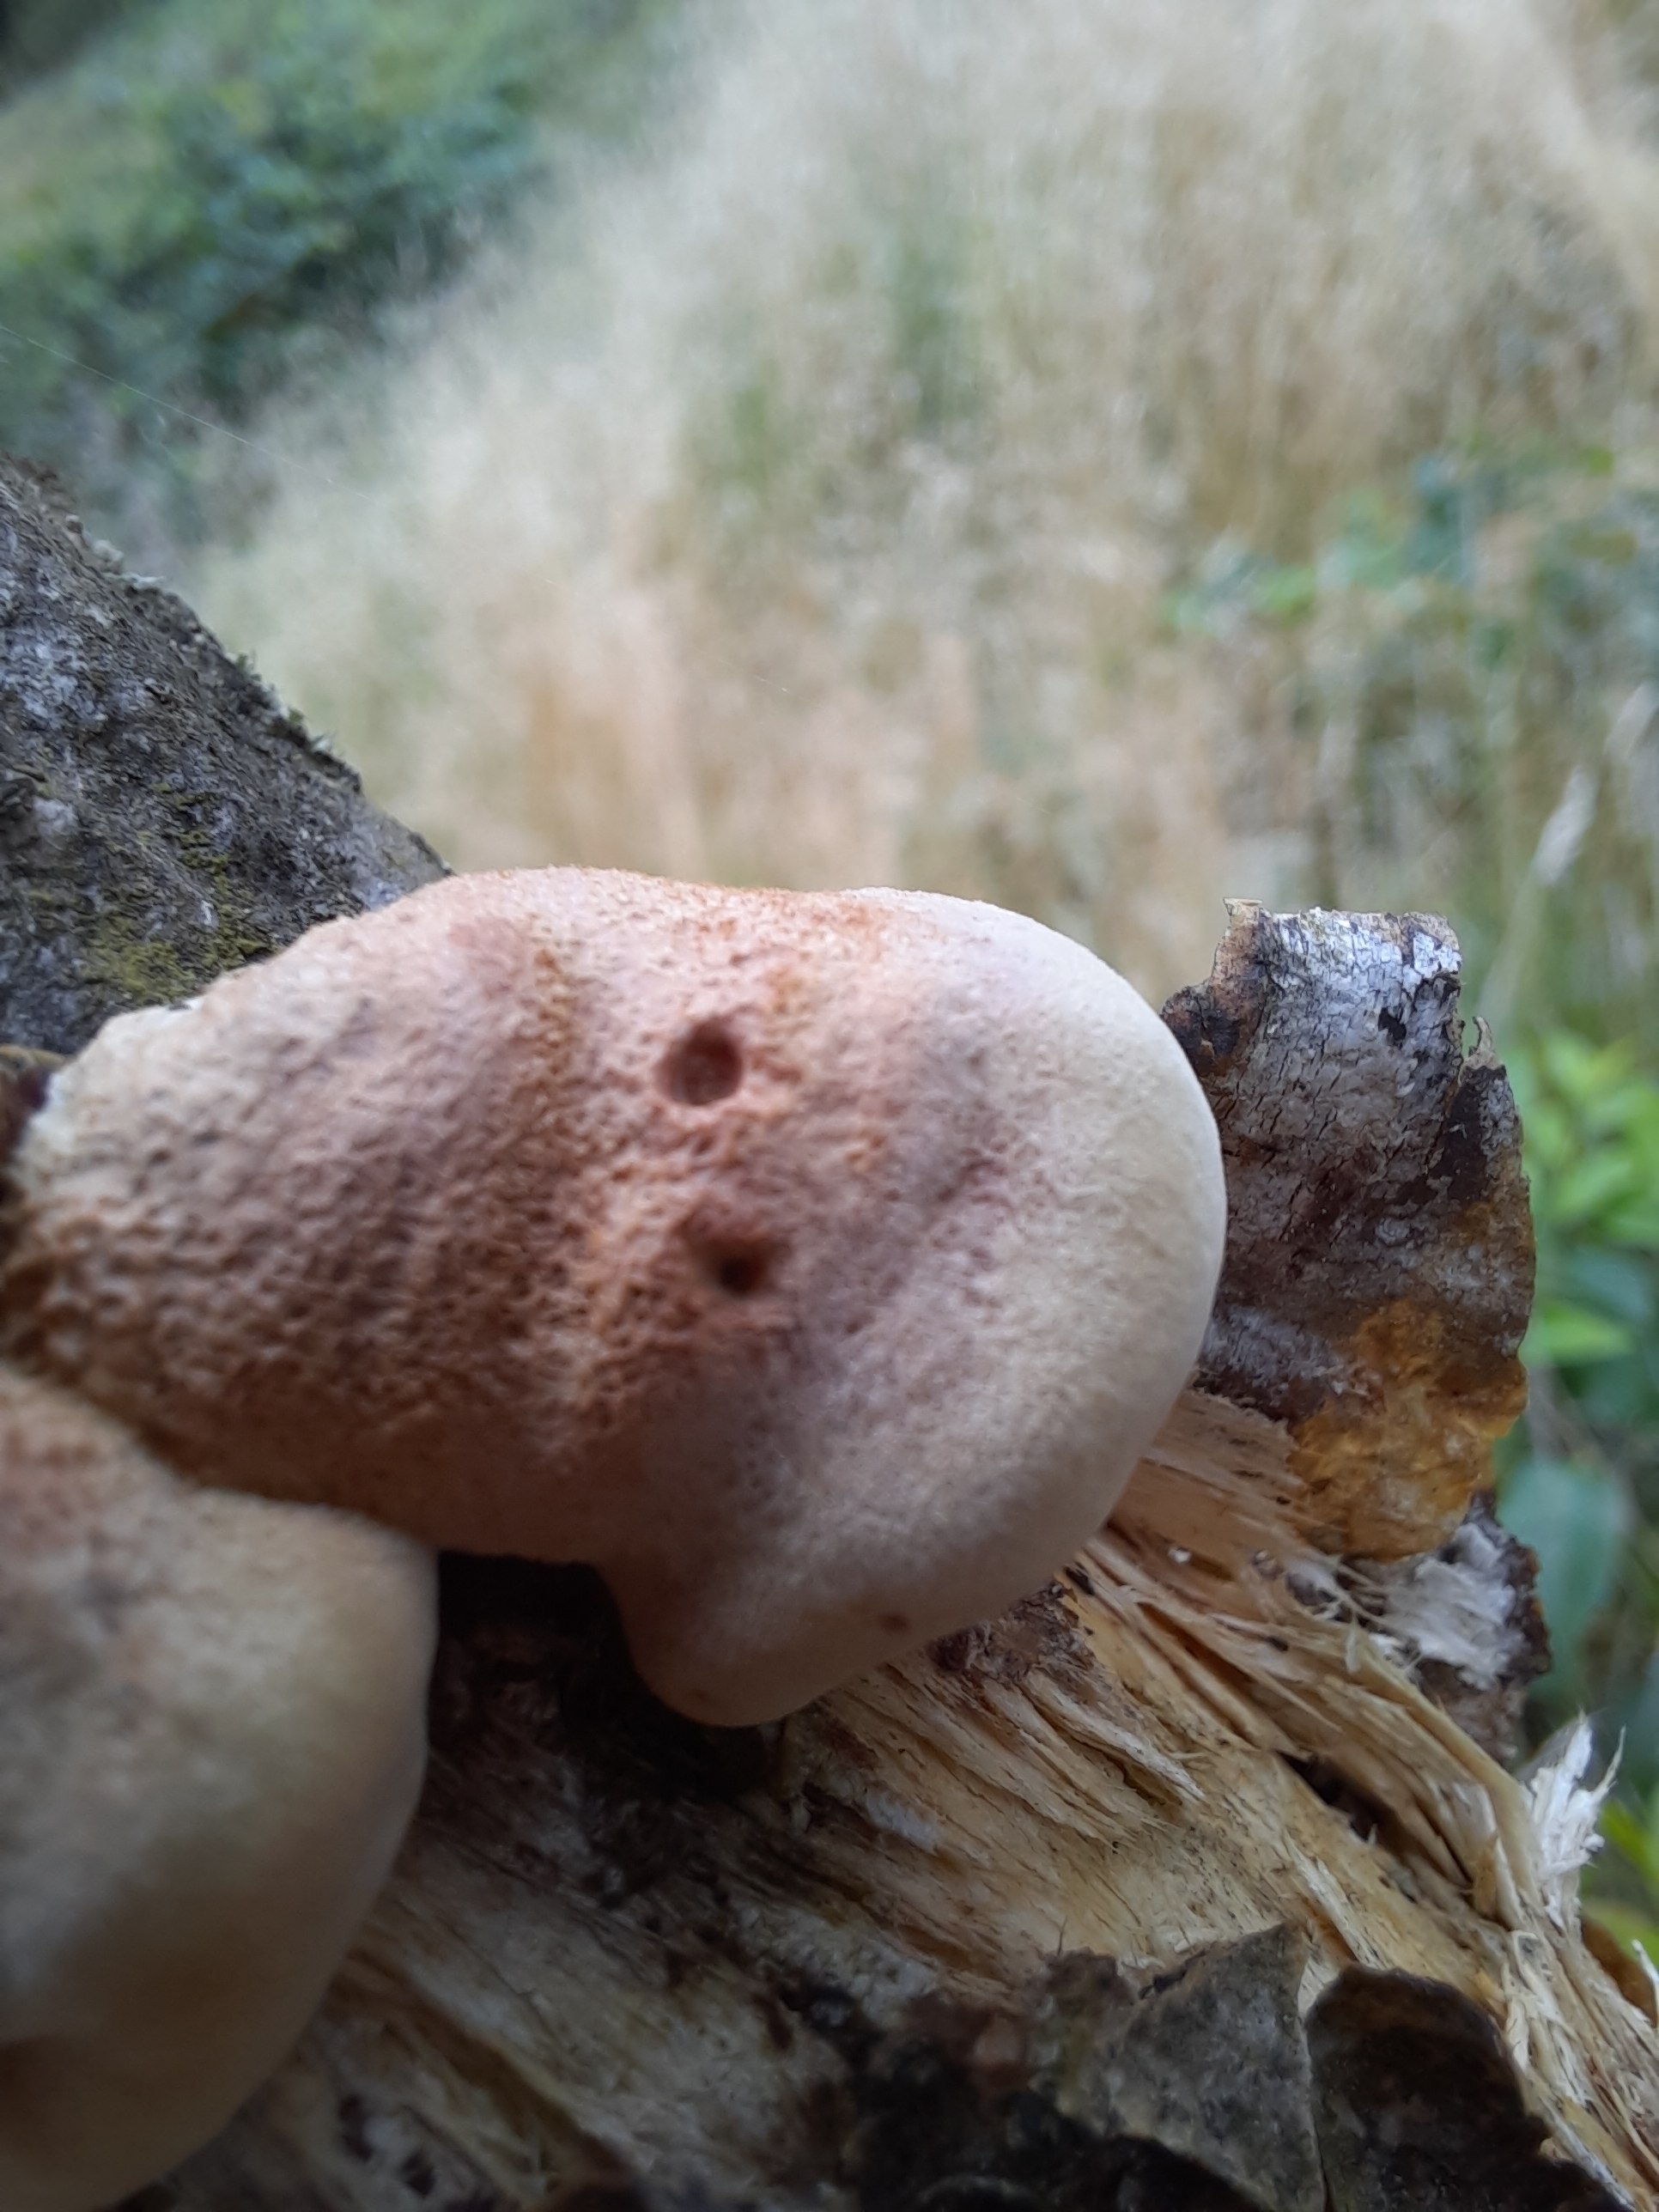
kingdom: Fungi
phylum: Basidiomycota
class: Agaricomycetes
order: Polyporales
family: Phanerochaetaceae
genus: Hapalopilus
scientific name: Hapalopilus rutilans
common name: rødlig okkerporesvamp
